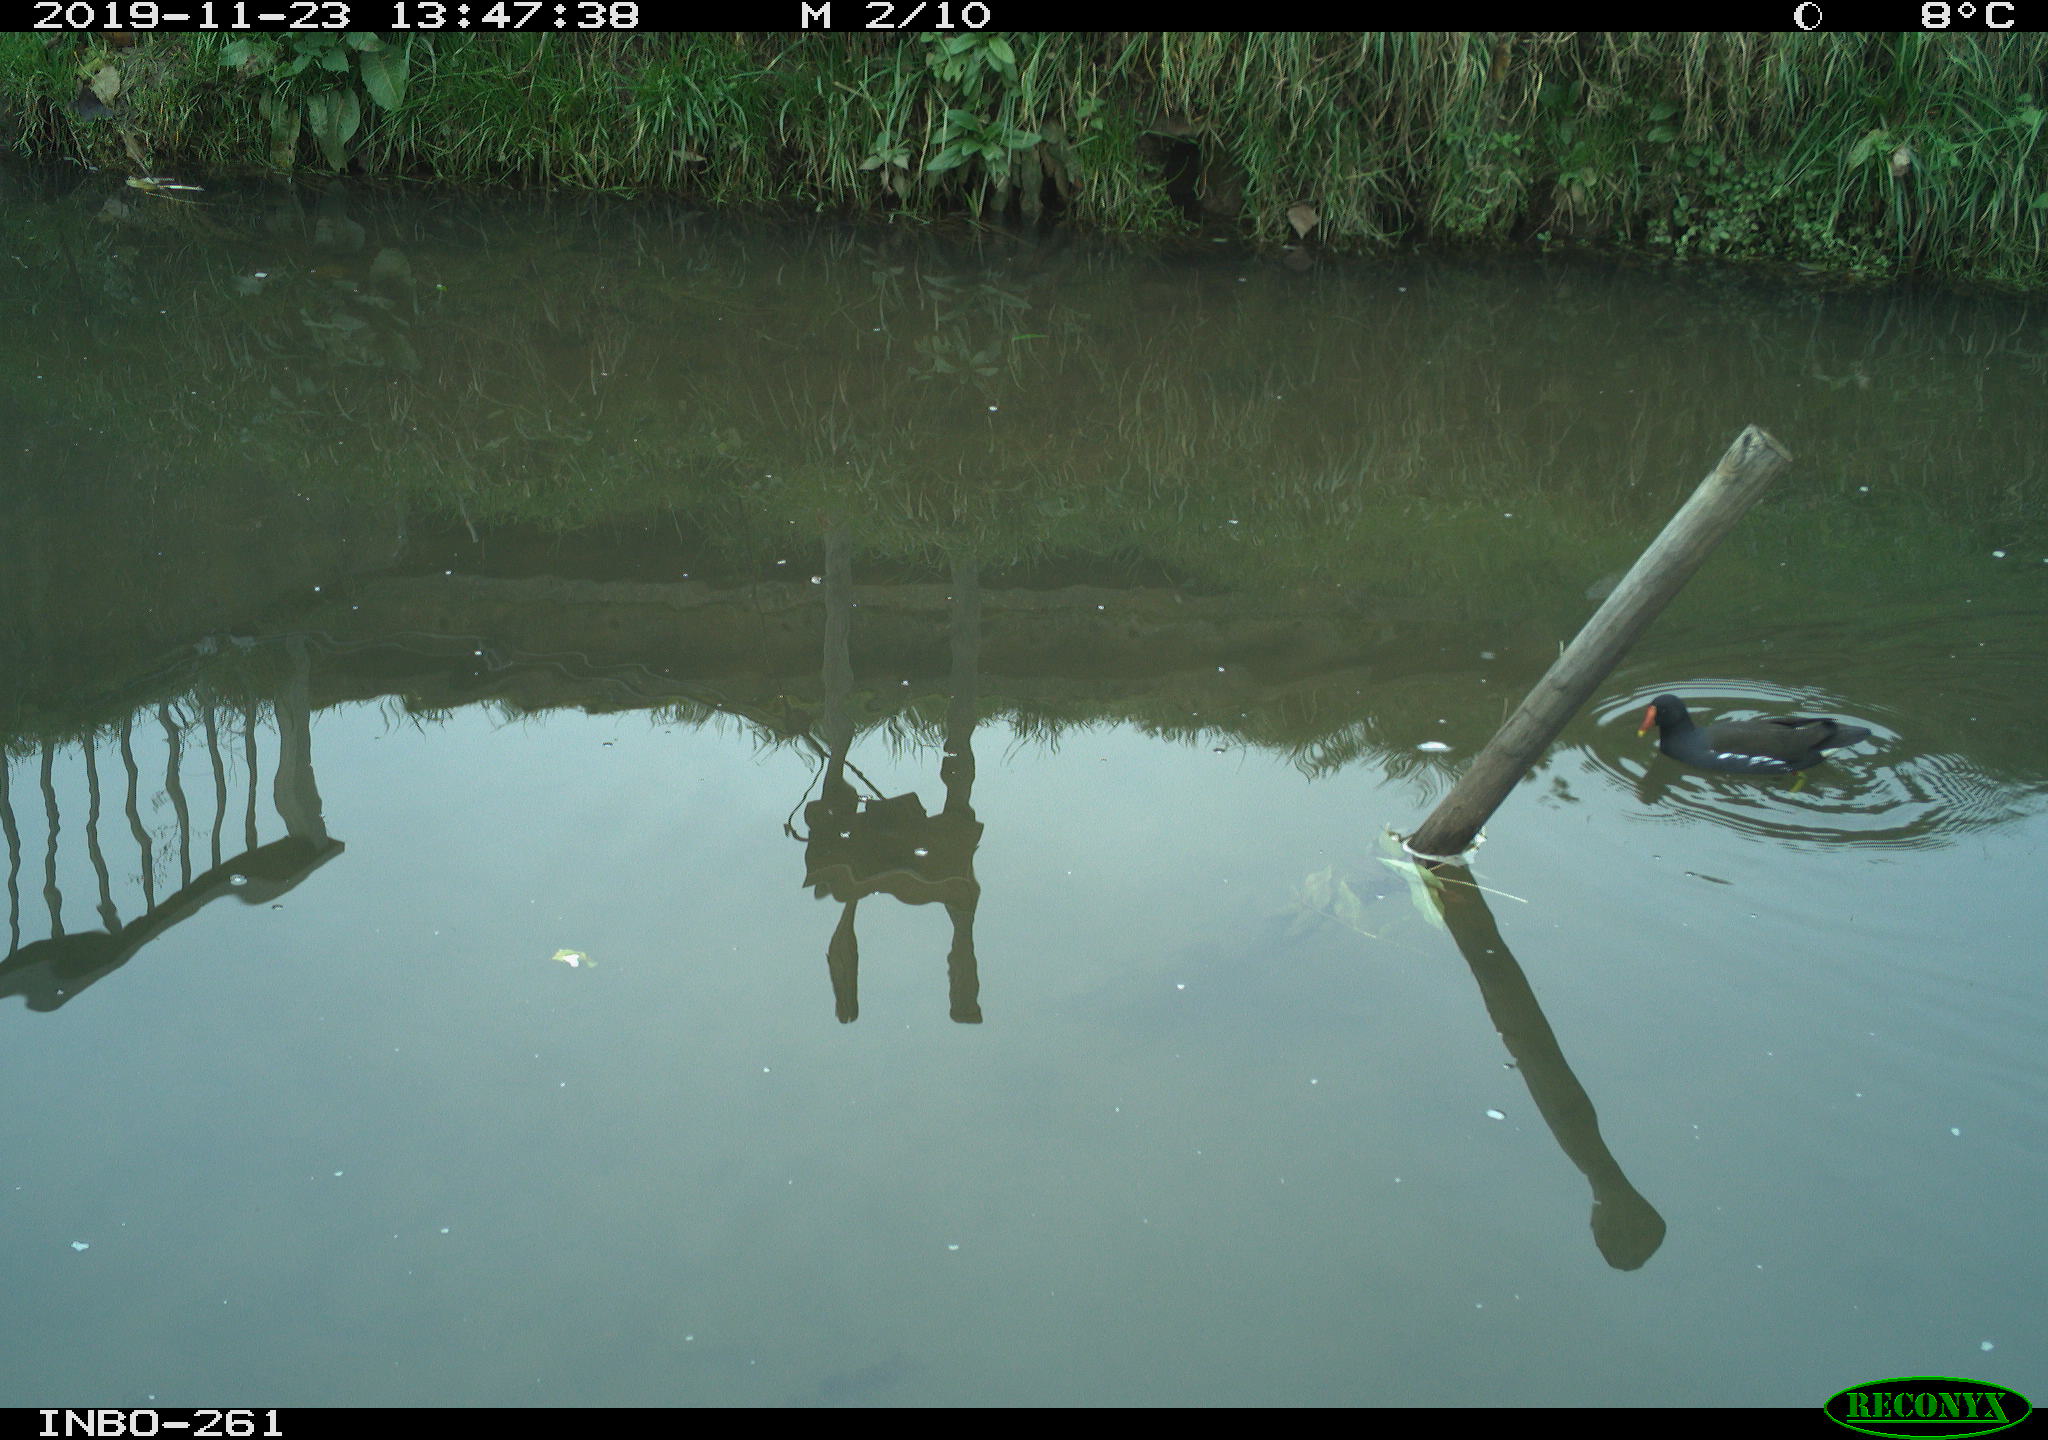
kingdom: Animalia
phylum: Chordata
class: Aves
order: Gruiformes
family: Rallidae
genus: Gallinula
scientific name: Gallinula chloropus
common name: Common moorhen
